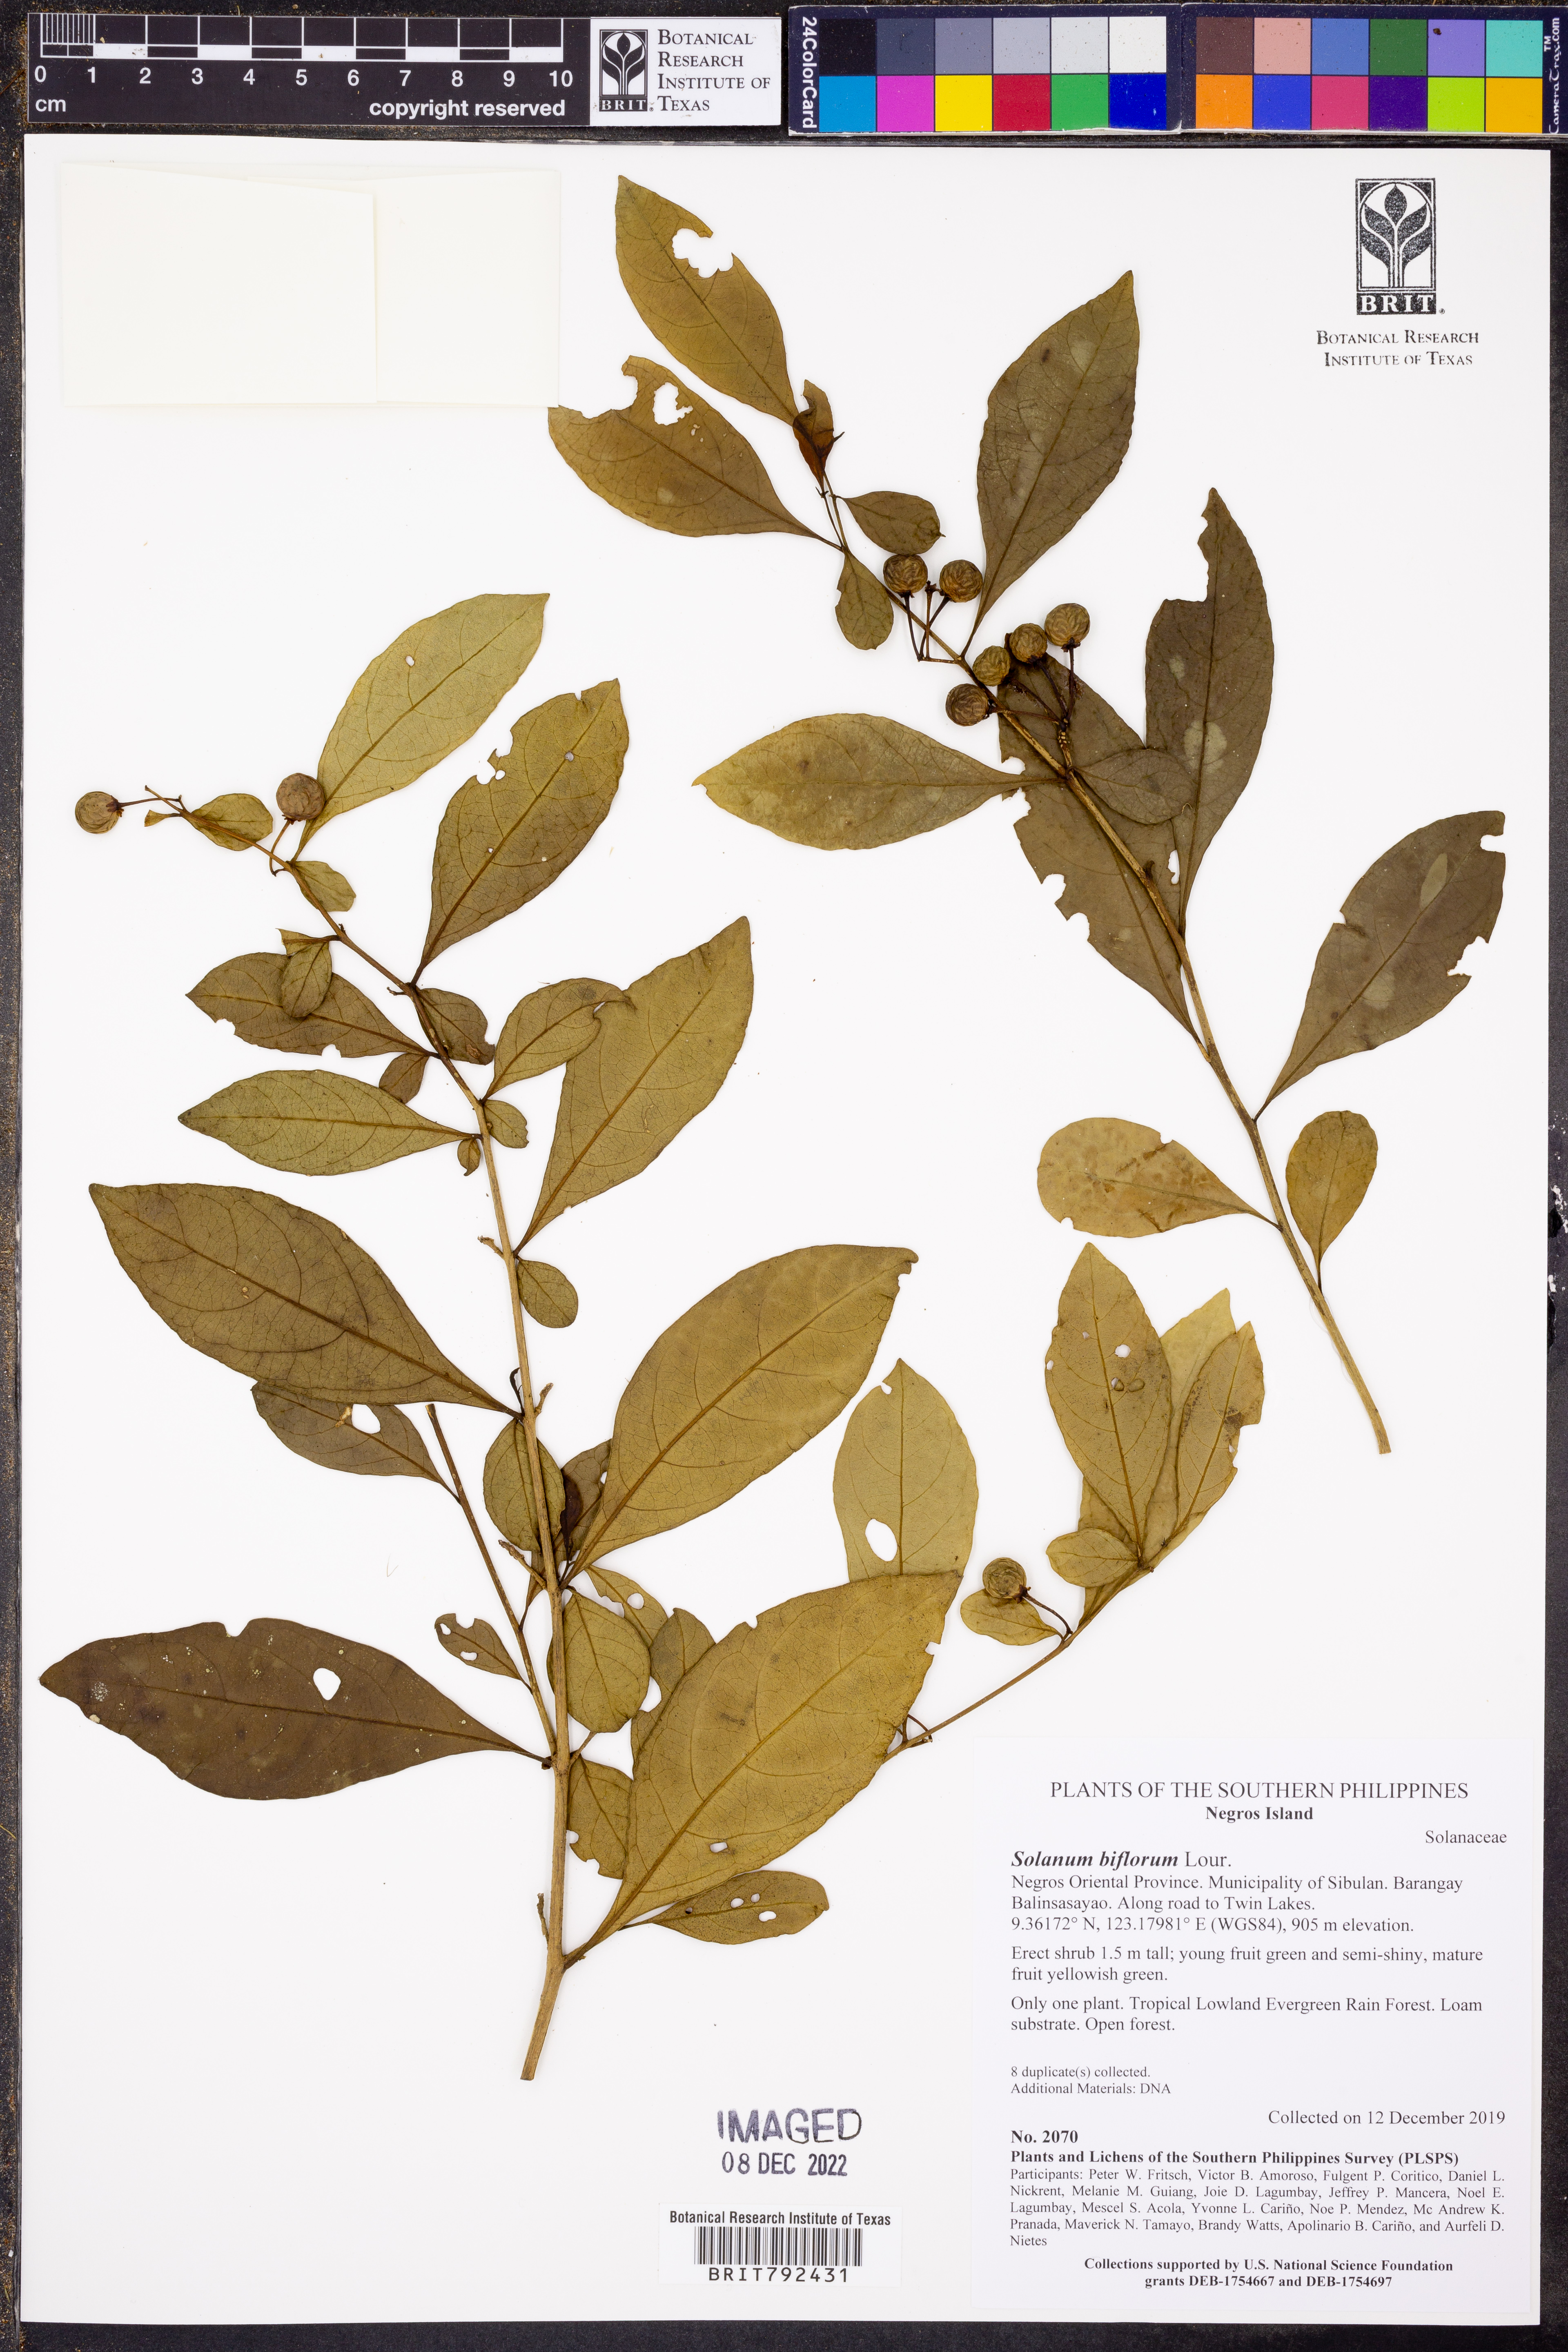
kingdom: Plantae
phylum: Tracheophyta
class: Magnoliopsida
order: Solanales
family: Solanaceae
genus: Lycianthes
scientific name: Lycianthes biflora
